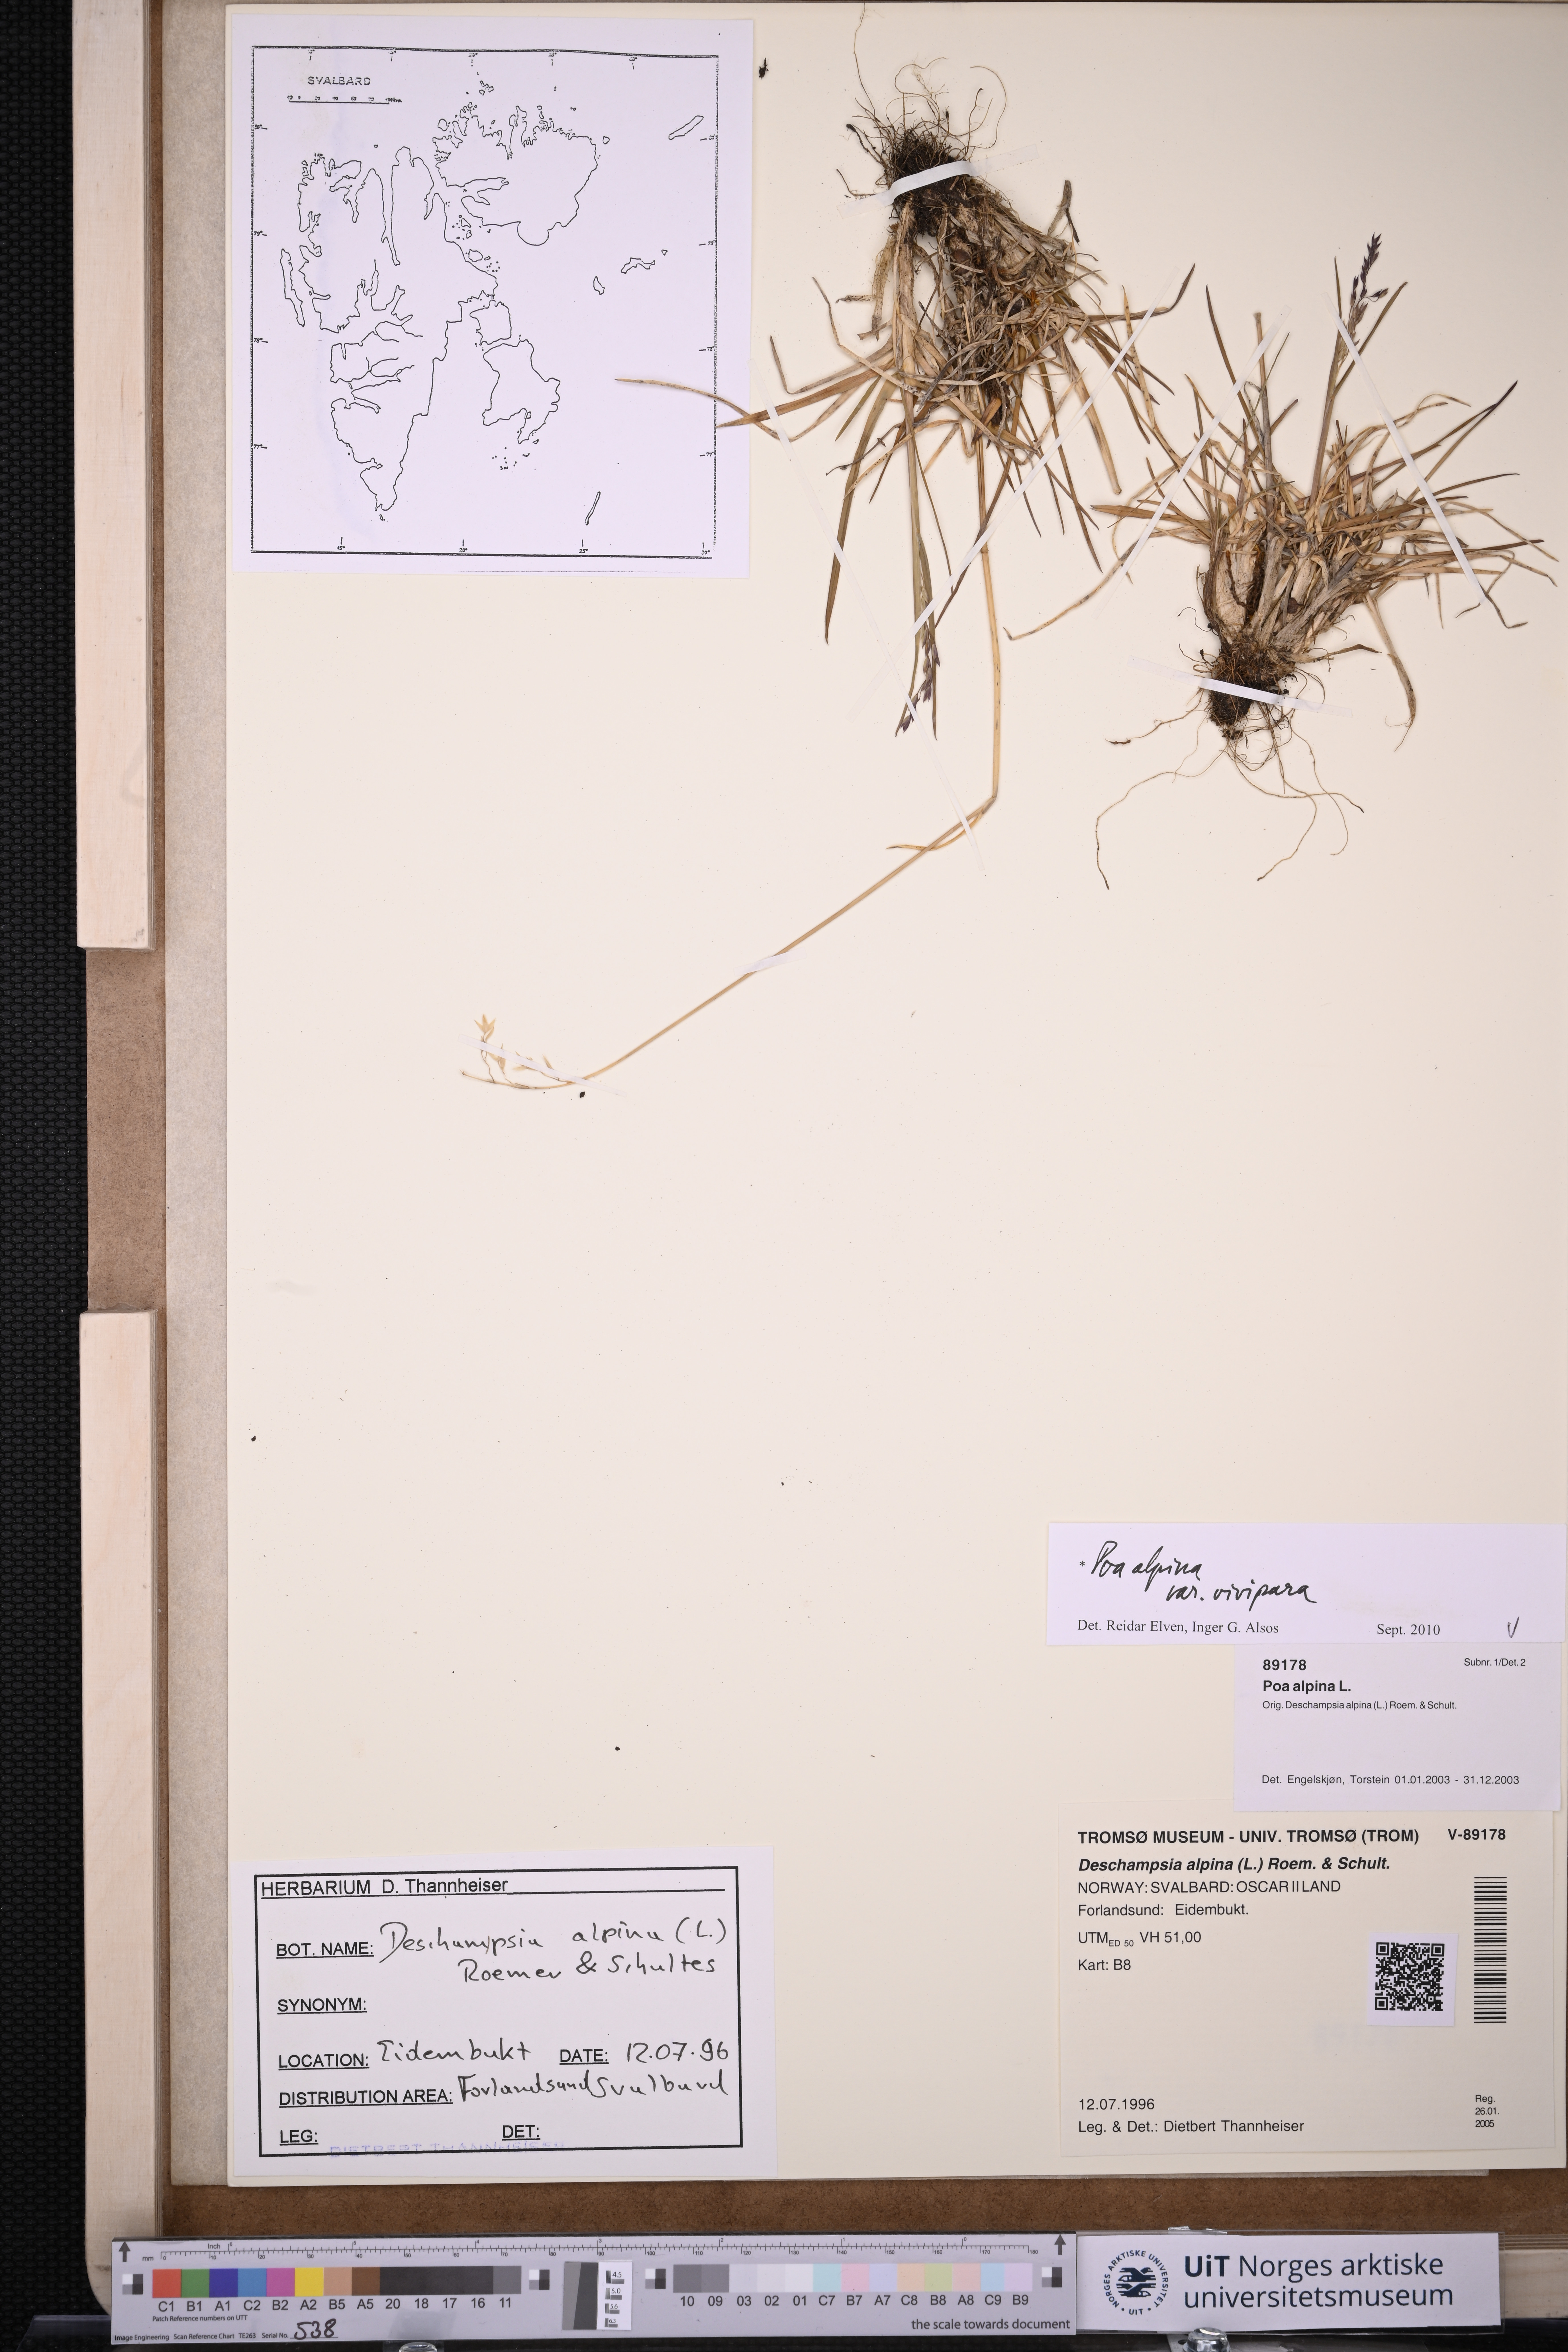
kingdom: Plantae
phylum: Tracheophyta
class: Liliopsida
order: Poales
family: Poaceae
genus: Poa
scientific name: Poa alpina
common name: Alpine bluegrass
